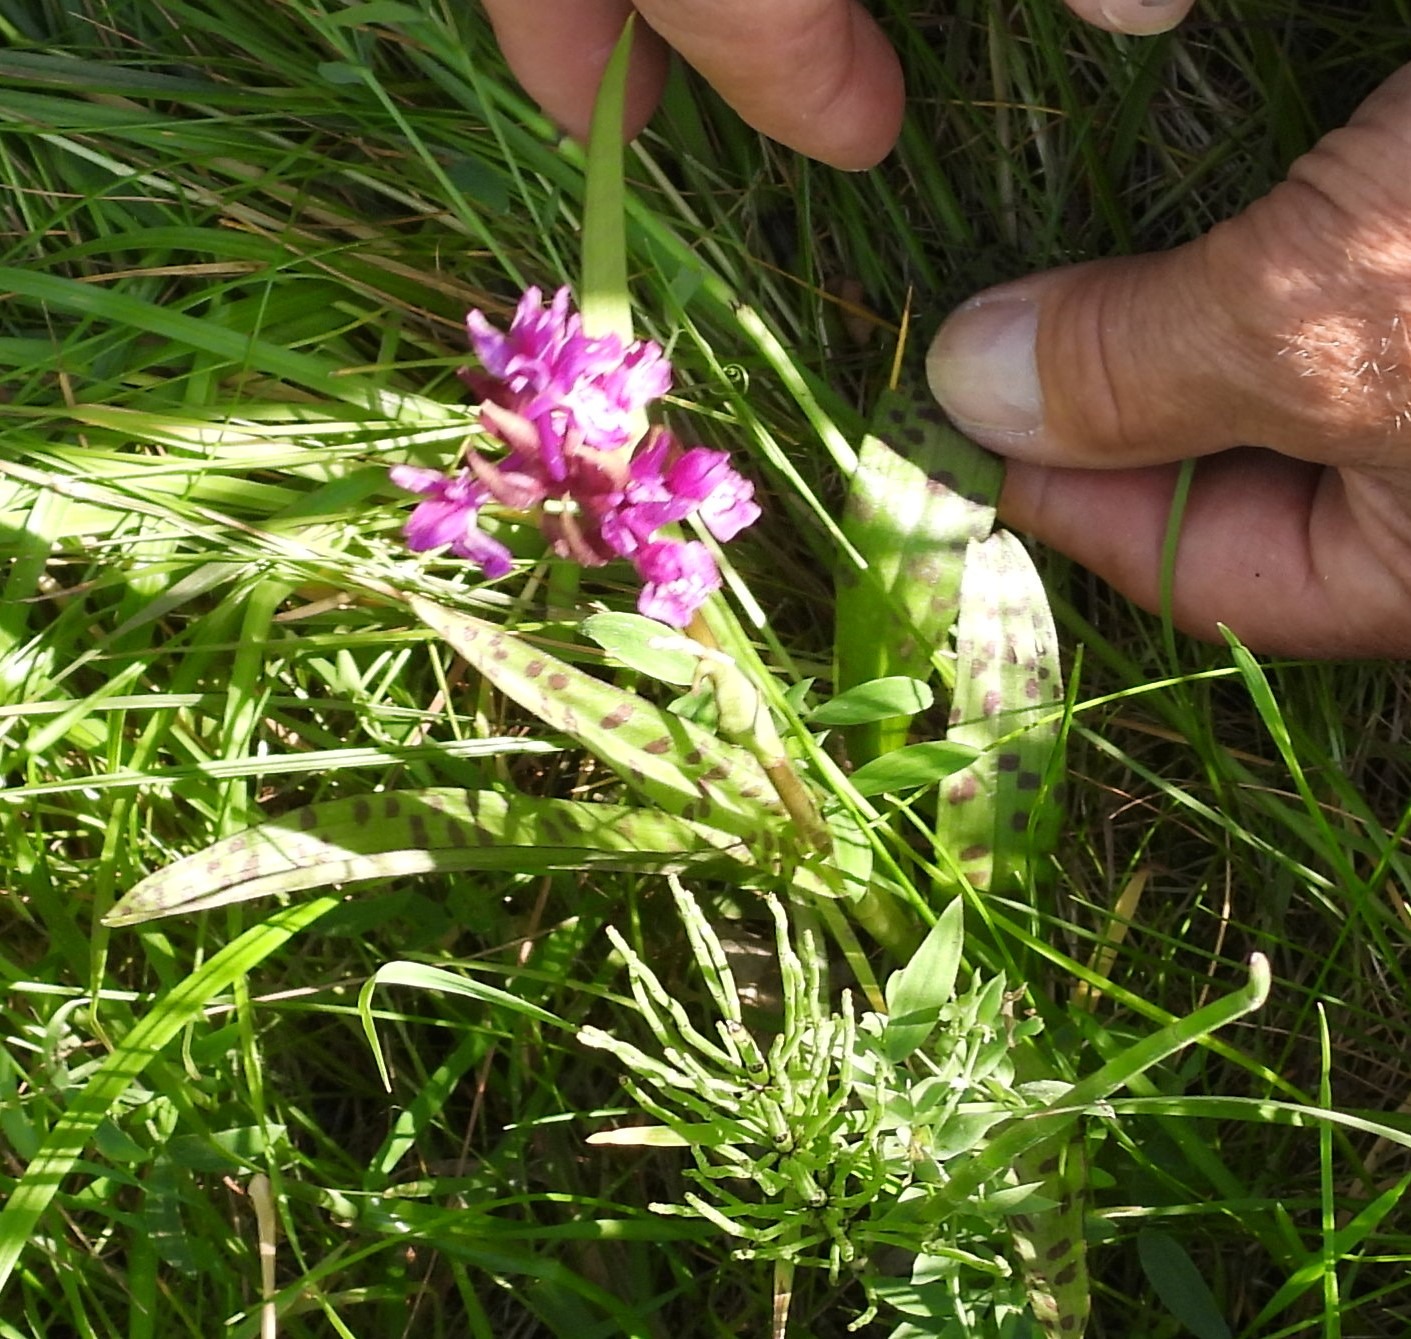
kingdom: Plantae
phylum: Tracheophyta
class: Liliopsida
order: Asparagales
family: Orchidaceae
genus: Dactylorhiza
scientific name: Dactylorhiza majalis
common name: Maj-gøgeurt
